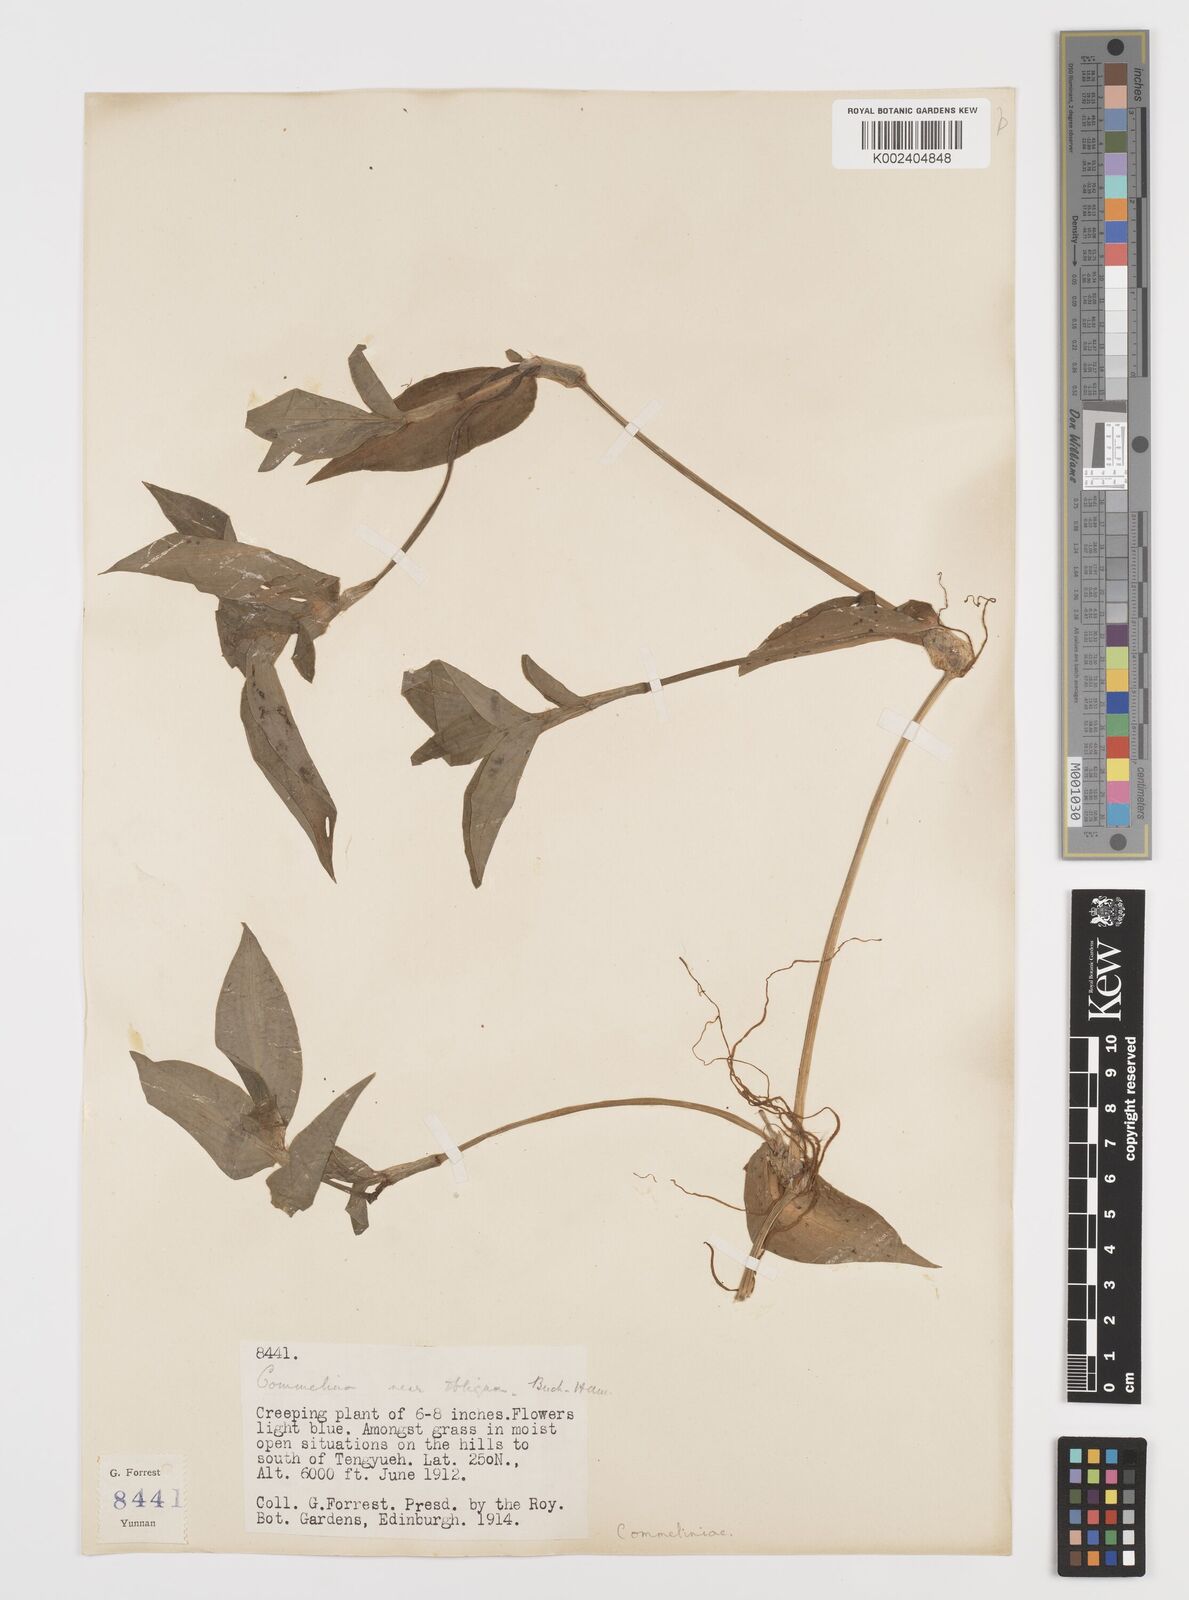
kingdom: Plantae
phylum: Tracheophyta
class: Liliopsida
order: Commelinales
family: Commelinaceae
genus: Commelina
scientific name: Commelina obliqua
